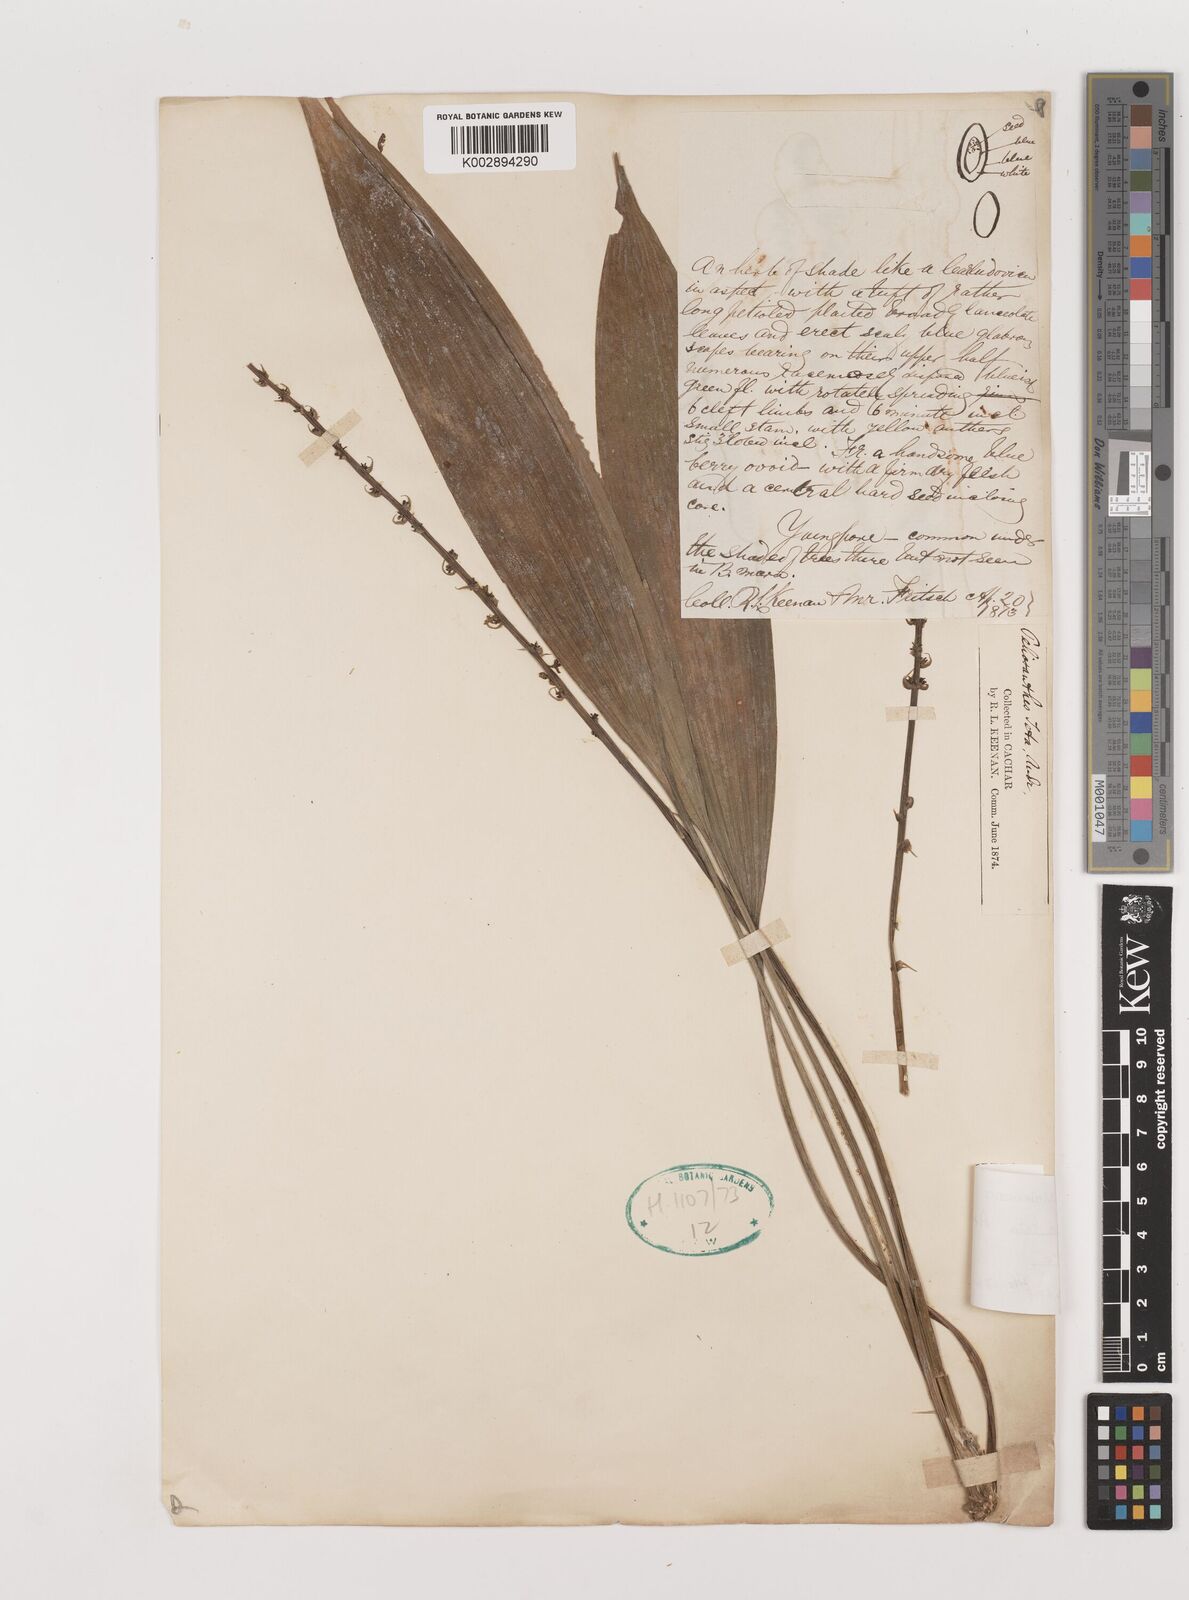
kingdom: Plantae
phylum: Tracheophyta
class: Liliopsida
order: Asparagales
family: Asparagaceae
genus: Peliosanthes
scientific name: Peliosanthes teta
